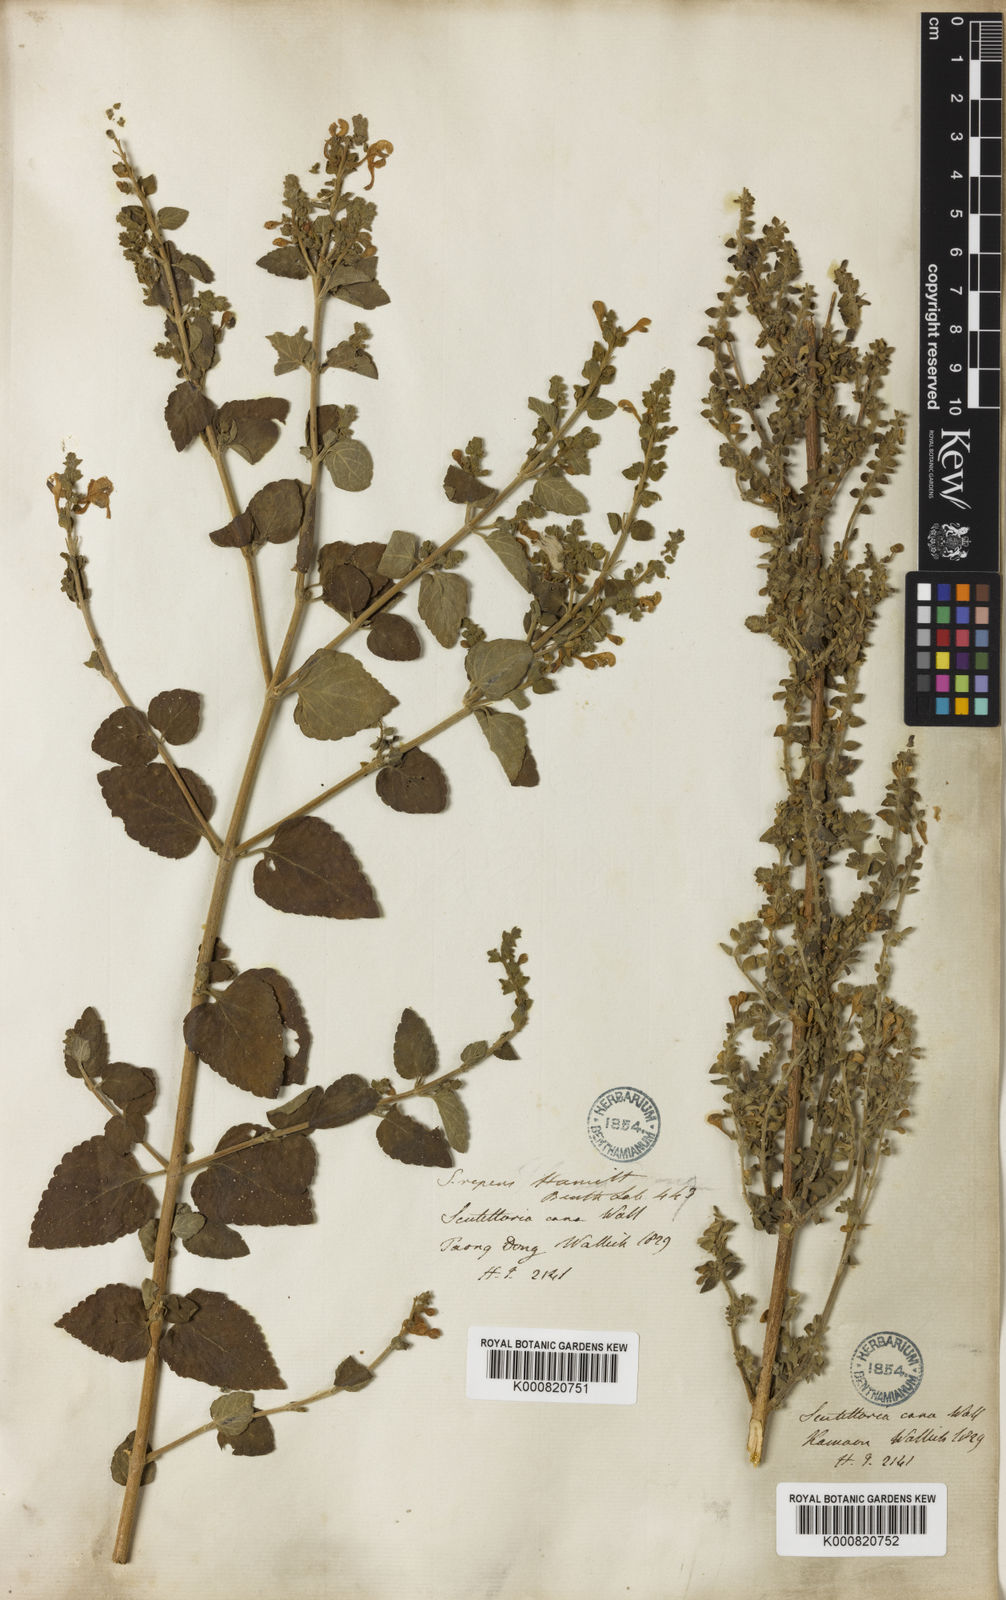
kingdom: Plantae
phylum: Tracheophyta
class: Magnoliopsida
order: Lamiales
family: Lamiaceae
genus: Scutellaria
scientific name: Scutellaria repens
